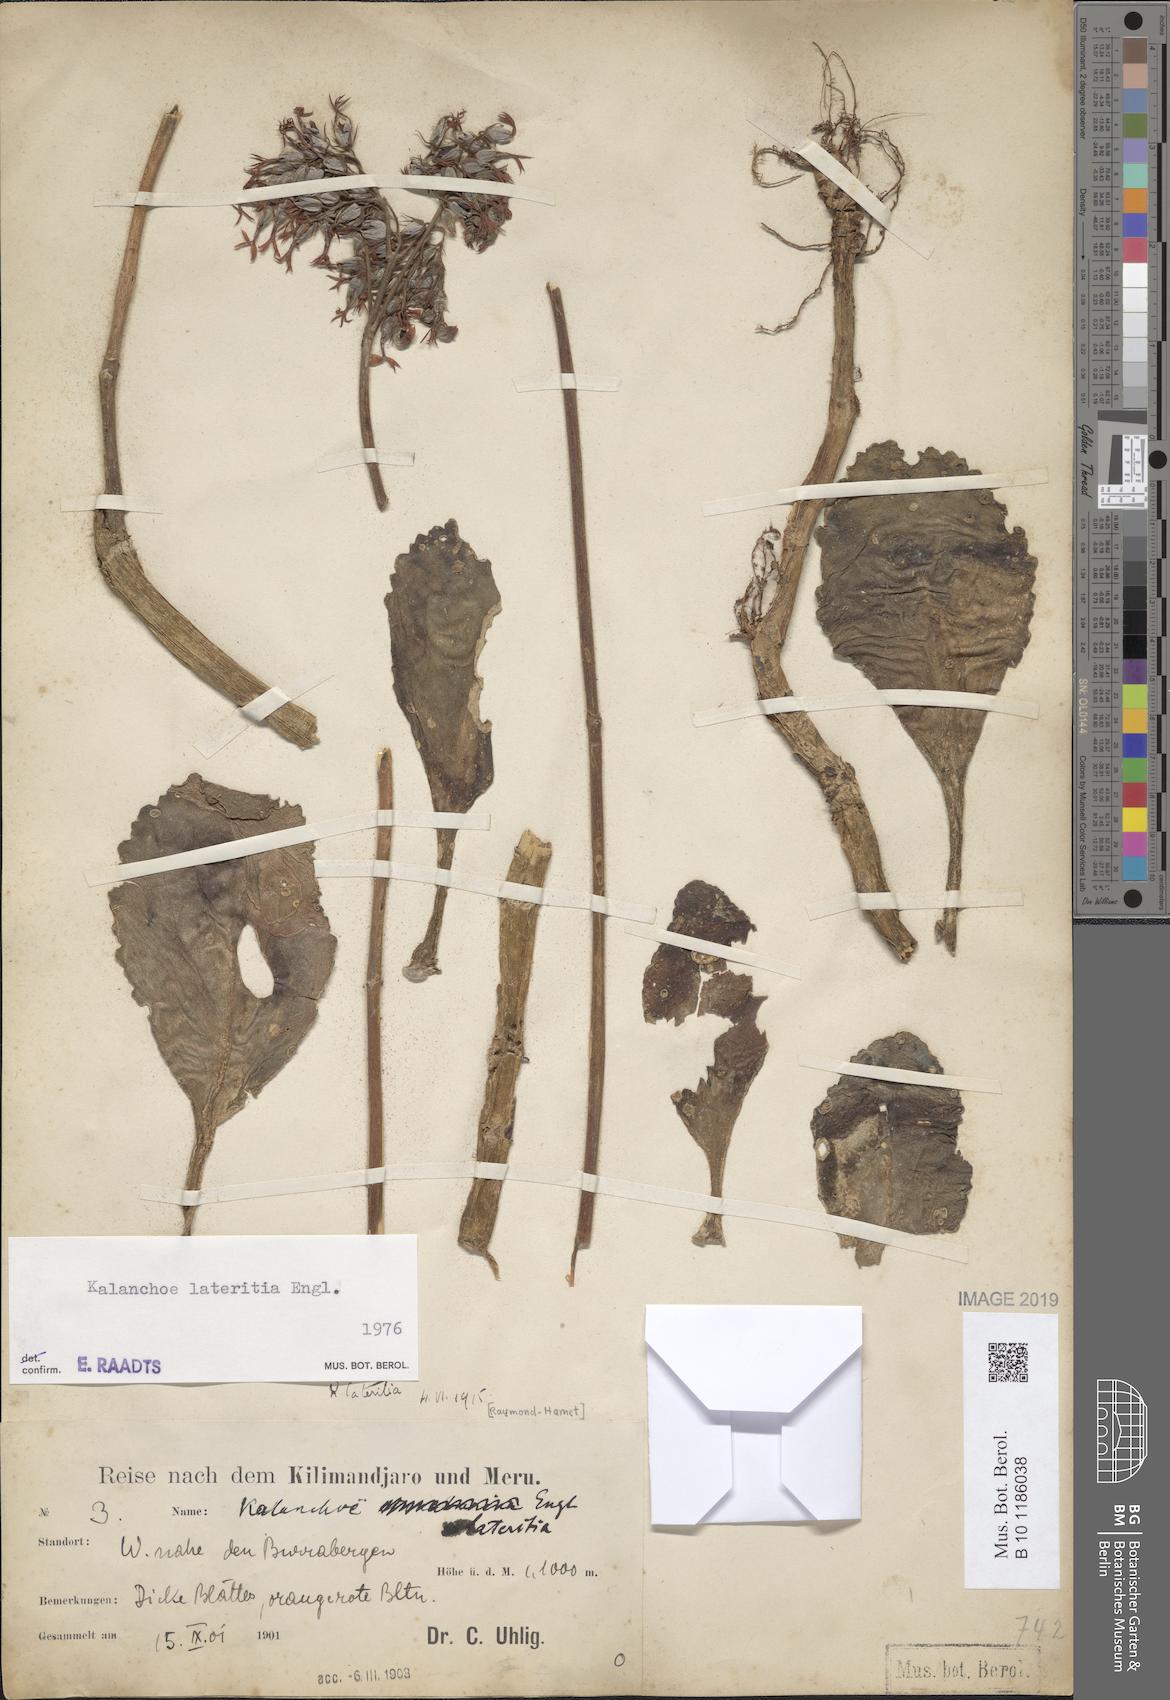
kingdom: Plantae
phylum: Tracheophyta
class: Magnoliopsida
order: Saxifragales
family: Crassulaceae
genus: Kalanchoe
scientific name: Kalanchoe lateritia
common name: Kalanchoe
